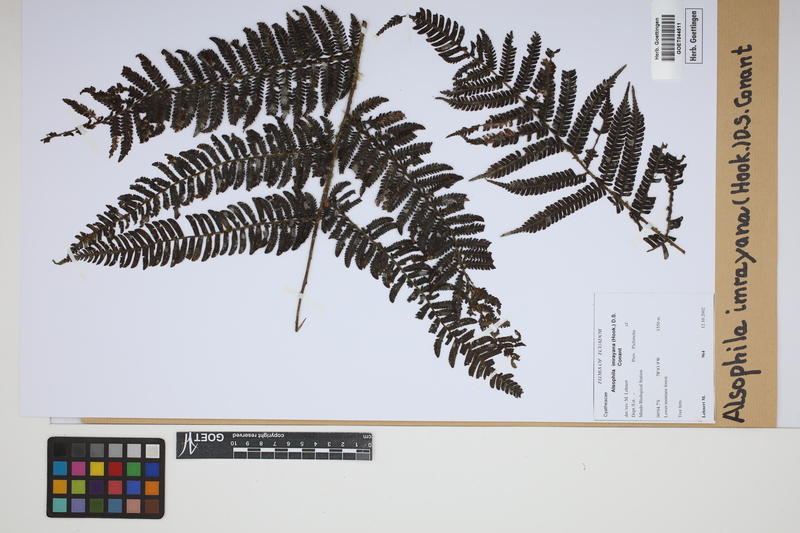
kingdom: Plantae
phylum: Tracheophyta
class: Polypodiopsida
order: Cyatheales
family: Cyatheaceae
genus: Alsophila
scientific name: Alsophila imrayana
